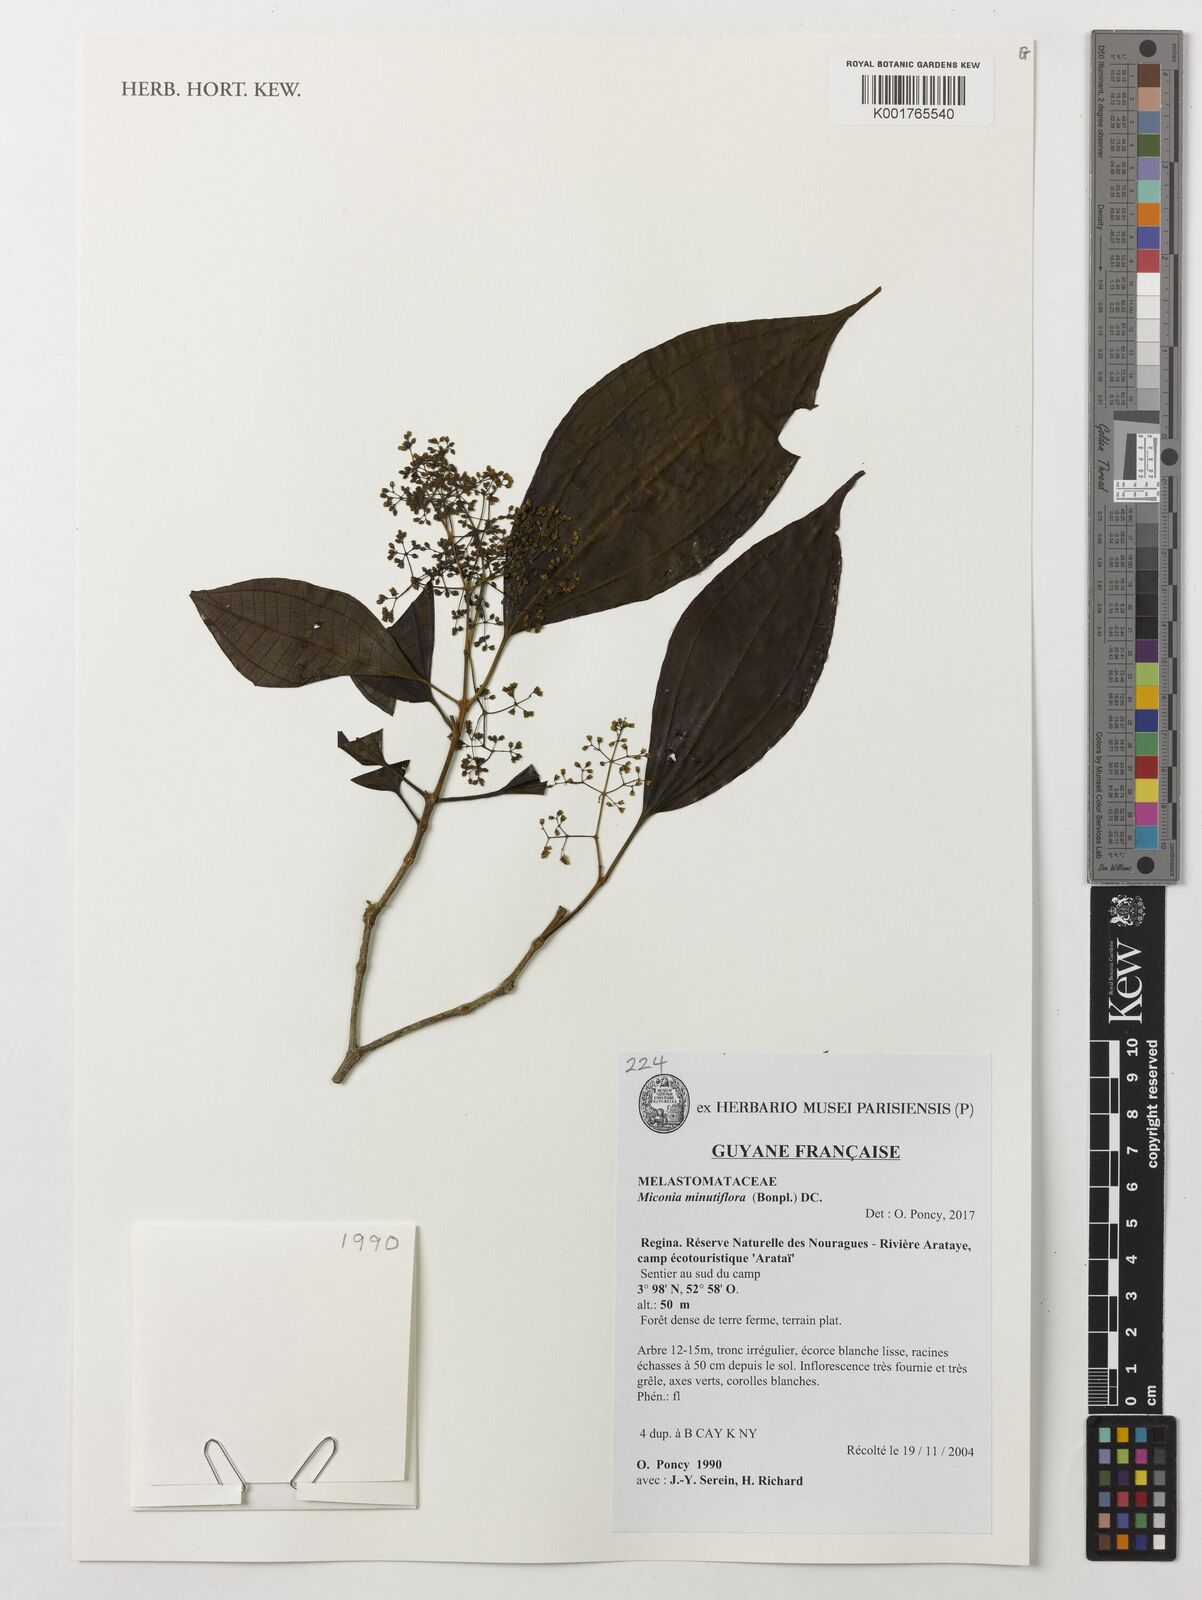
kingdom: Plantae
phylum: Tracheophyta
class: Magnoliopsida
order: Myrtales
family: Melastomataceae
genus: Miconia
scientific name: Miconia minutiflora
